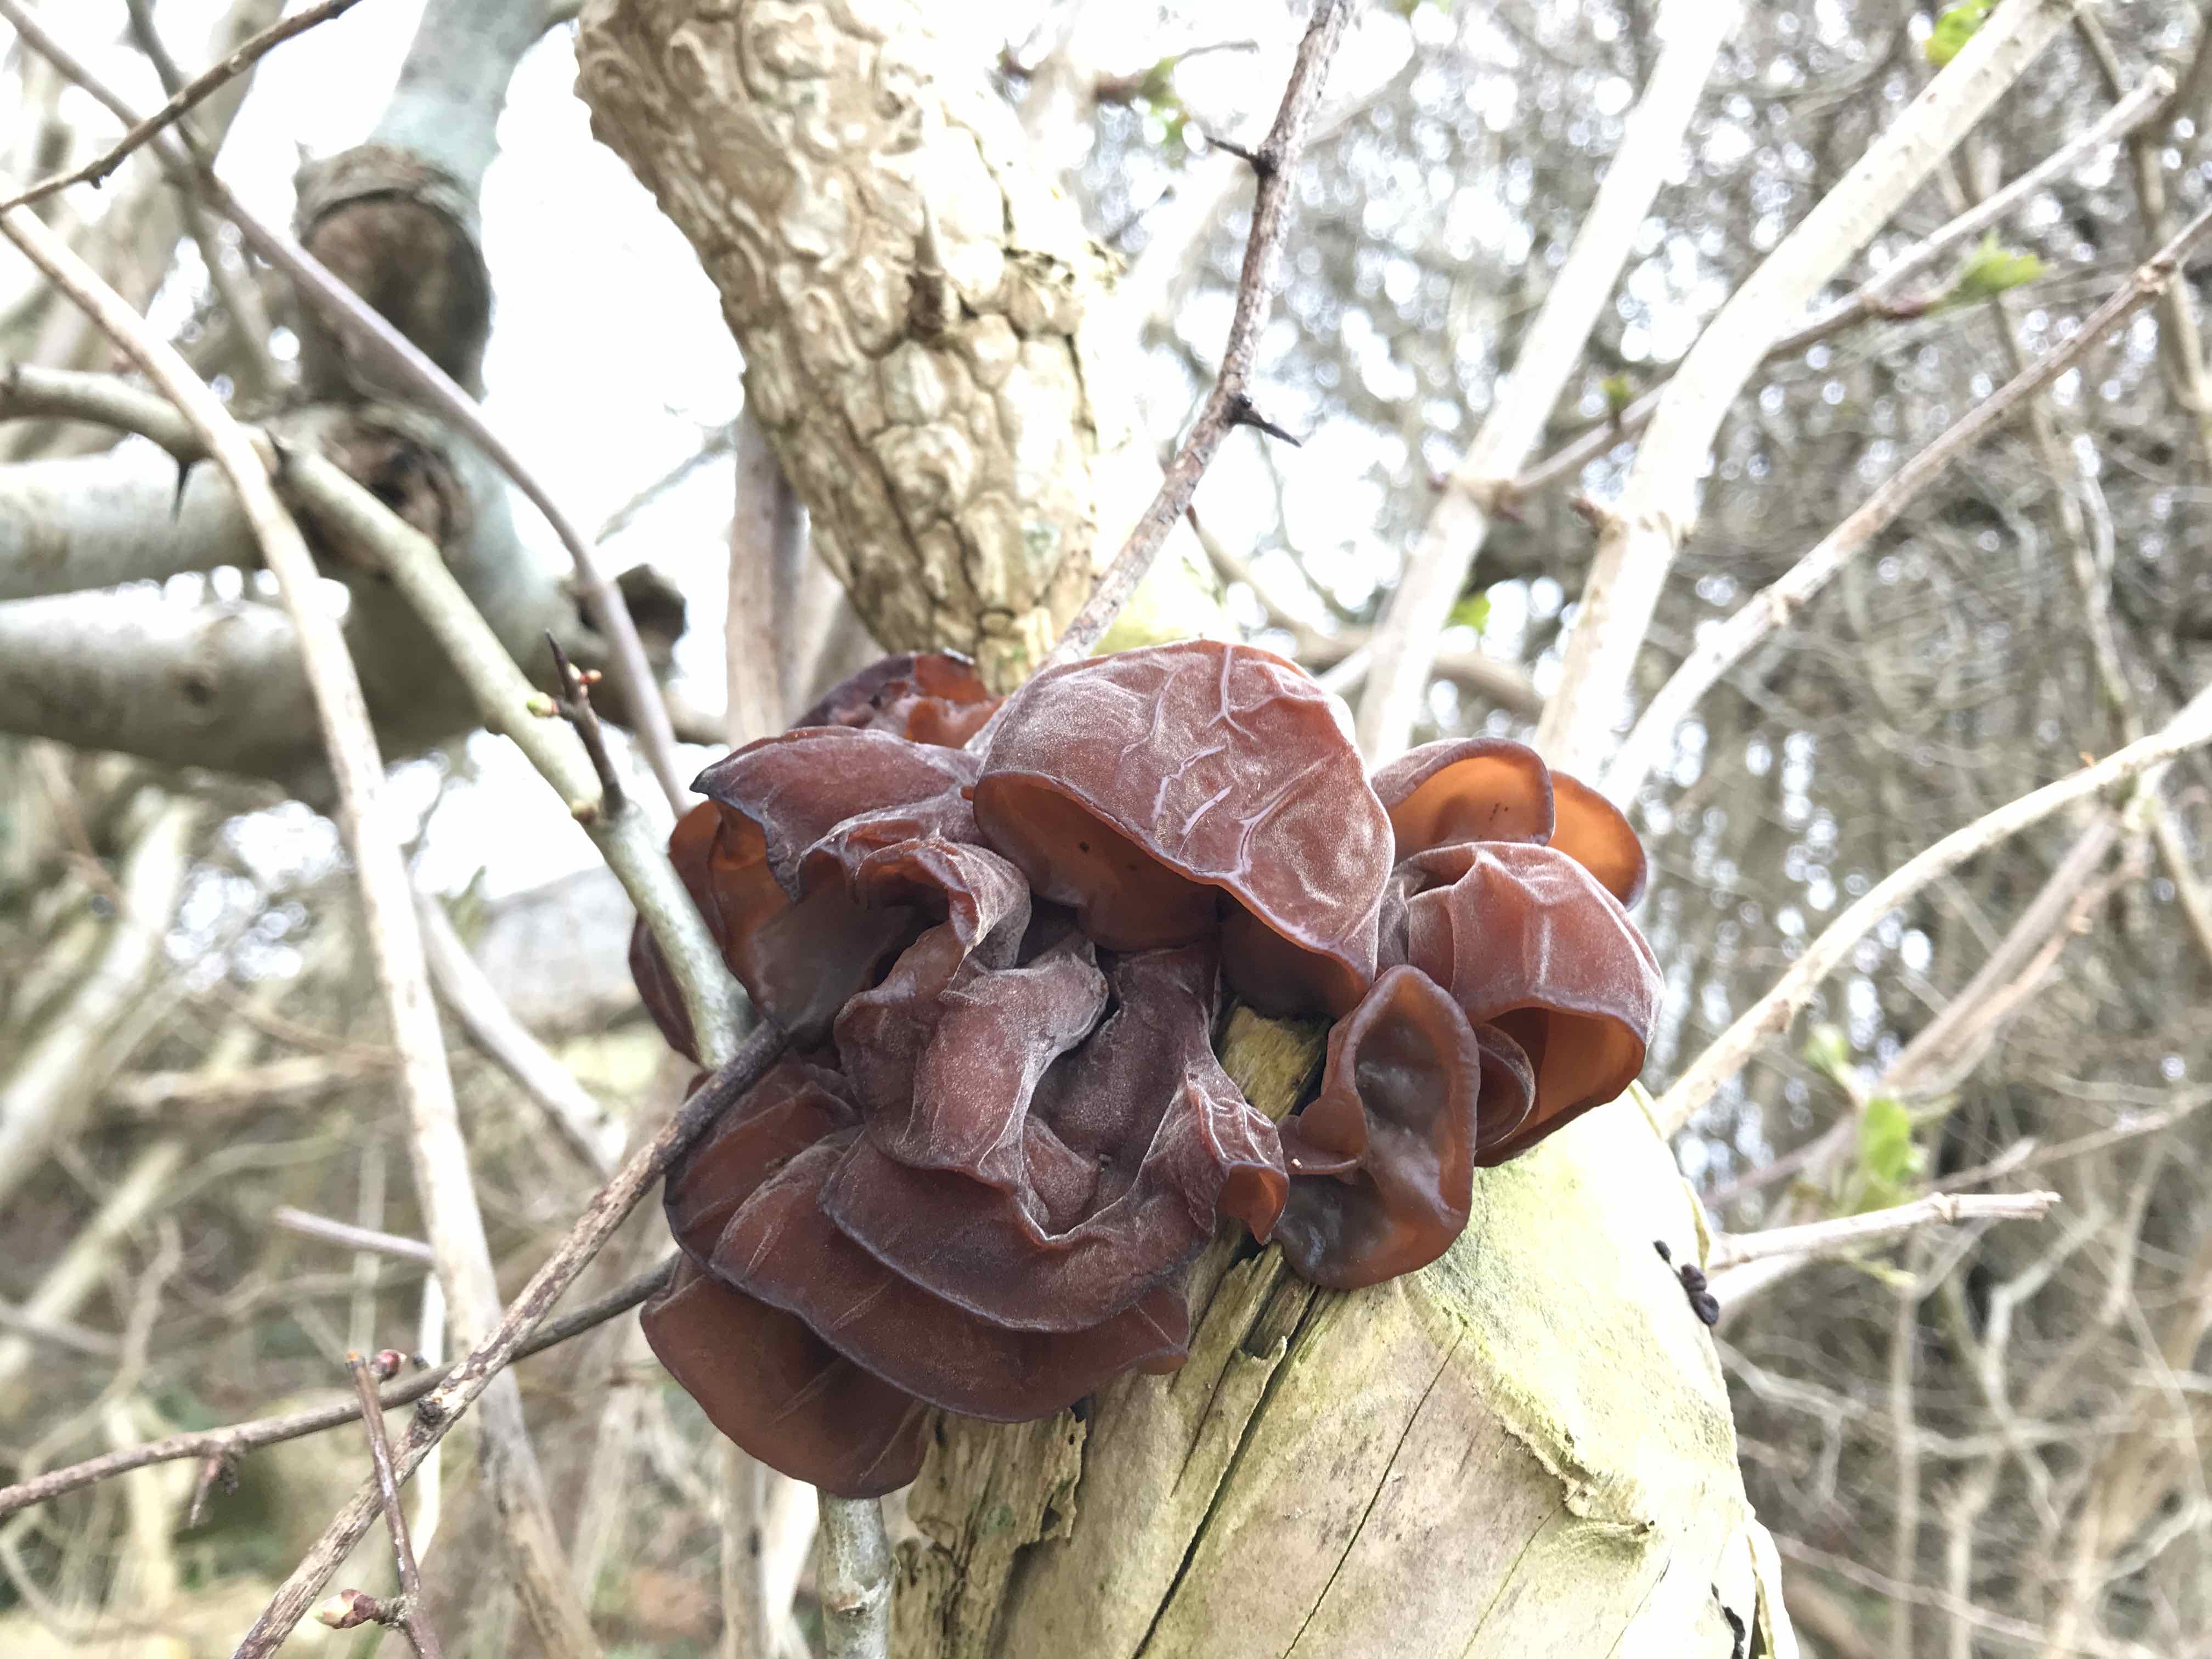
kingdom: Fungi
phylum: Basidiomycota
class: Agaricomycetes
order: Auriculariales
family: Auriculariaceae
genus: Auricularia
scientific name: Auricularia auricula-judae
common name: almindelig judasøre
